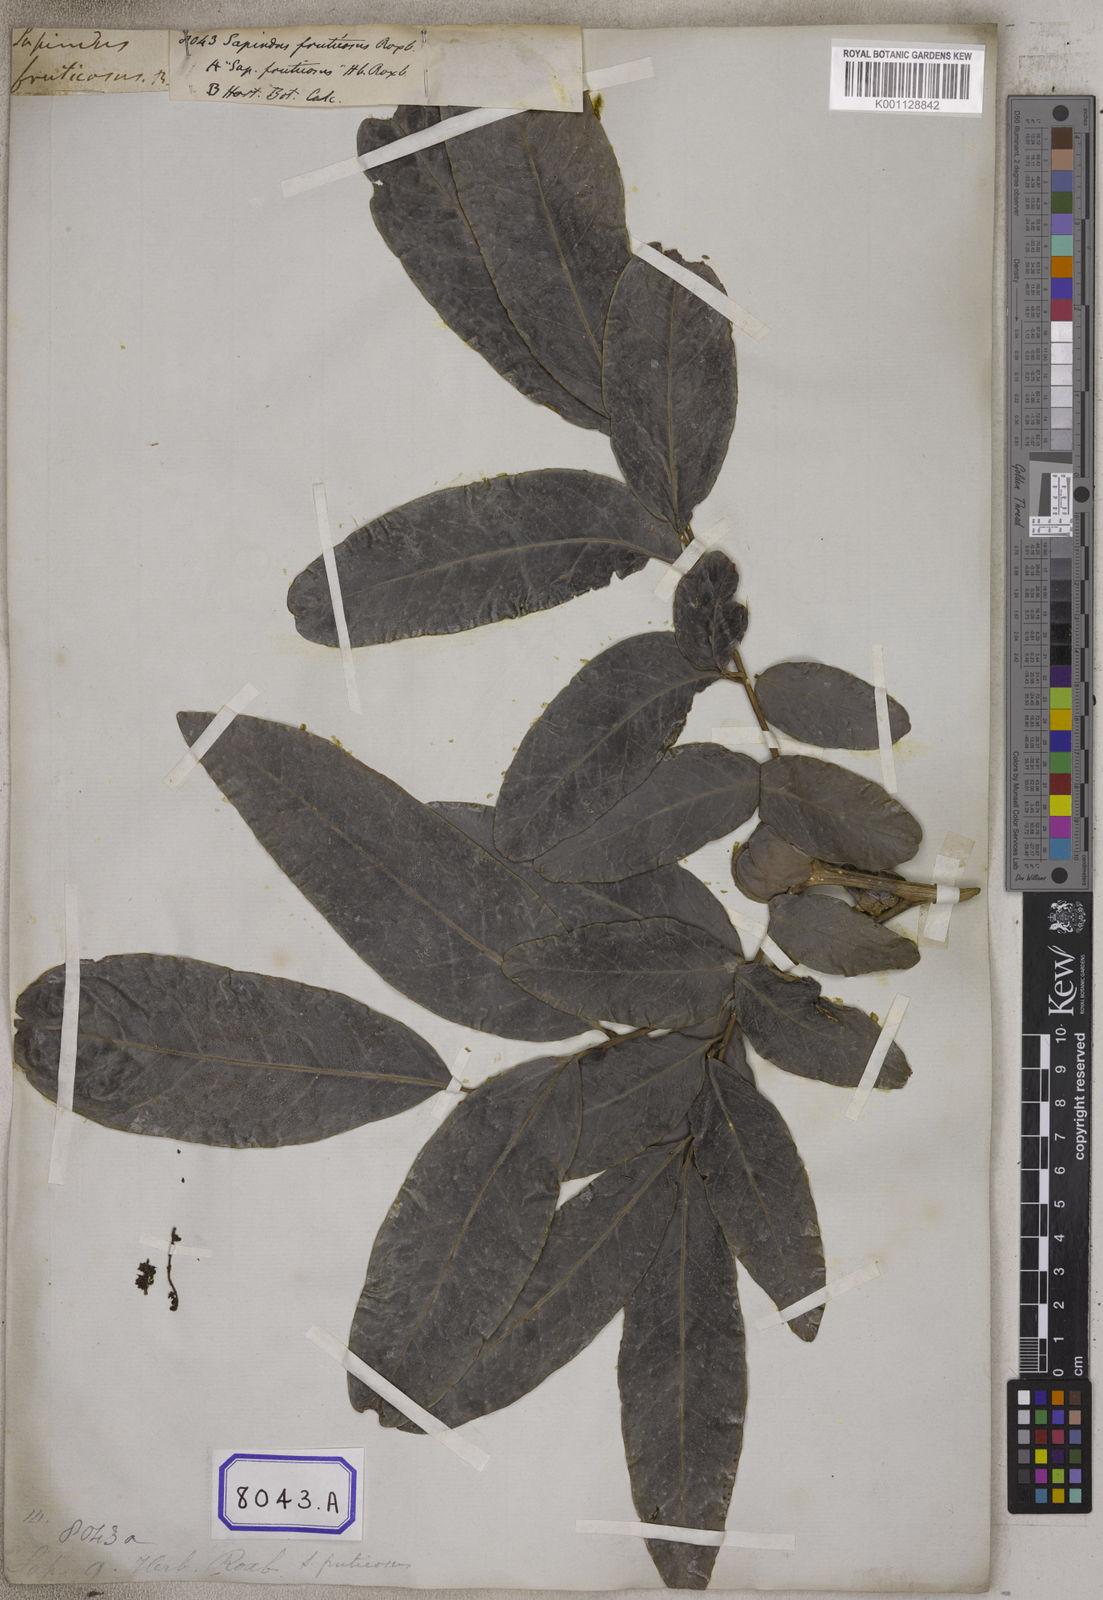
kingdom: Plantae
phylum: Tracheophyta
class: Magnoliopsida
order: Sapindales
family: Sapindaceae
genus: Lepisanthes
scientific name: Lepisanthes fruticosa
